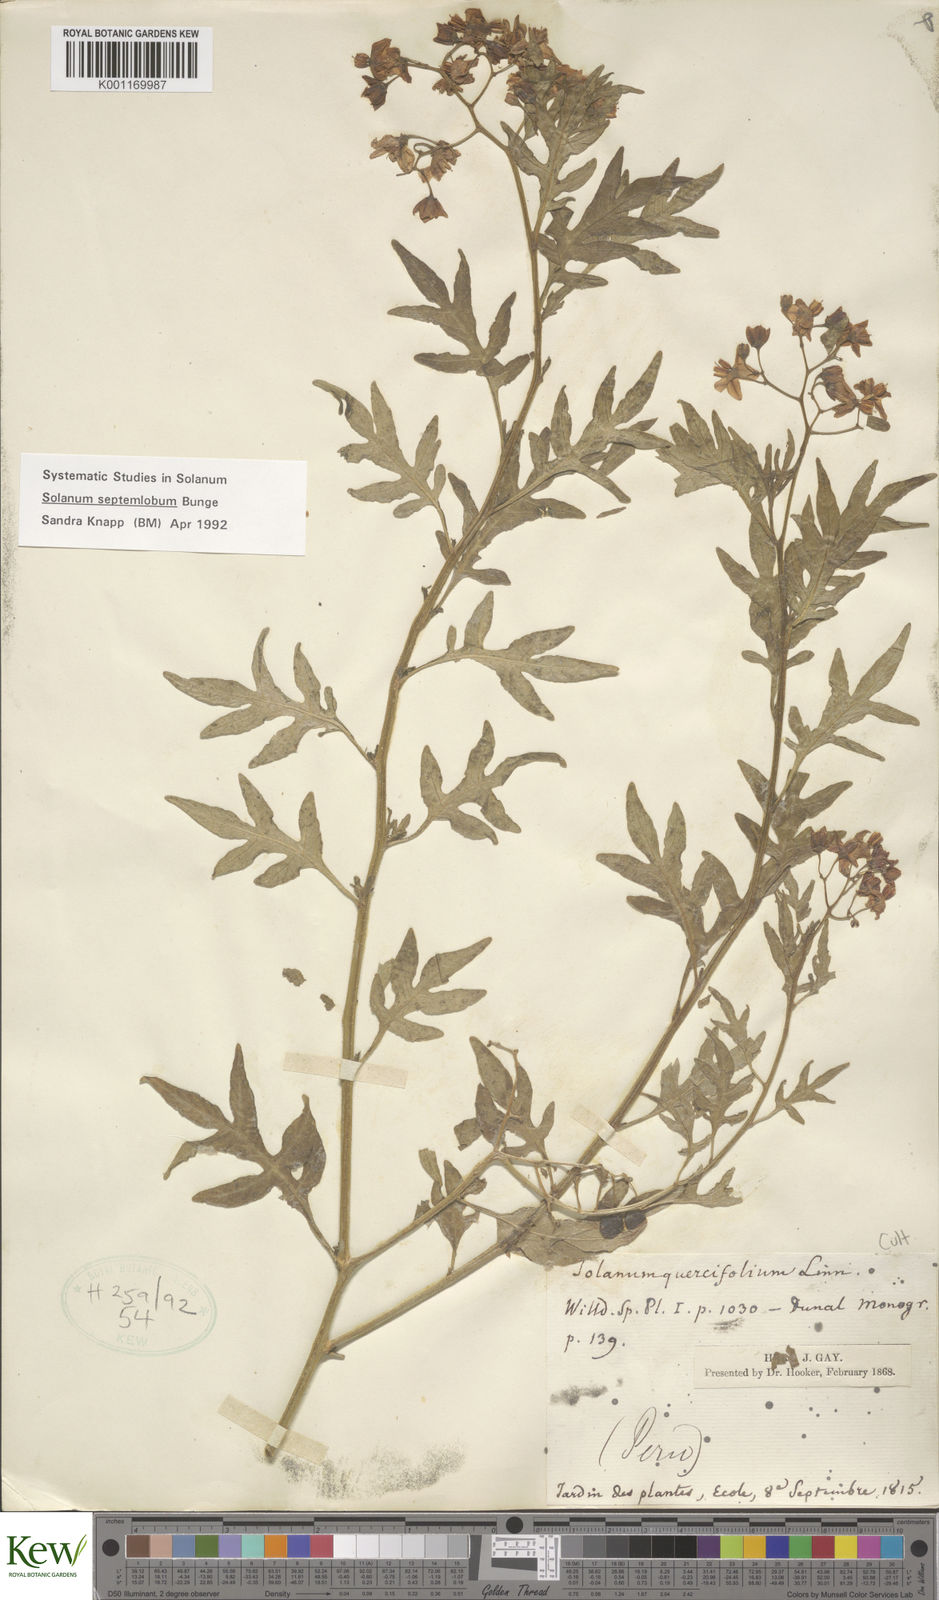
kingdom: Plantae
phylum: Tracheophyta
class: Magnoliopsida
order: Solanales
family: Solanaceae
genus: Solanum
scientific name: Solanum septemlobum
